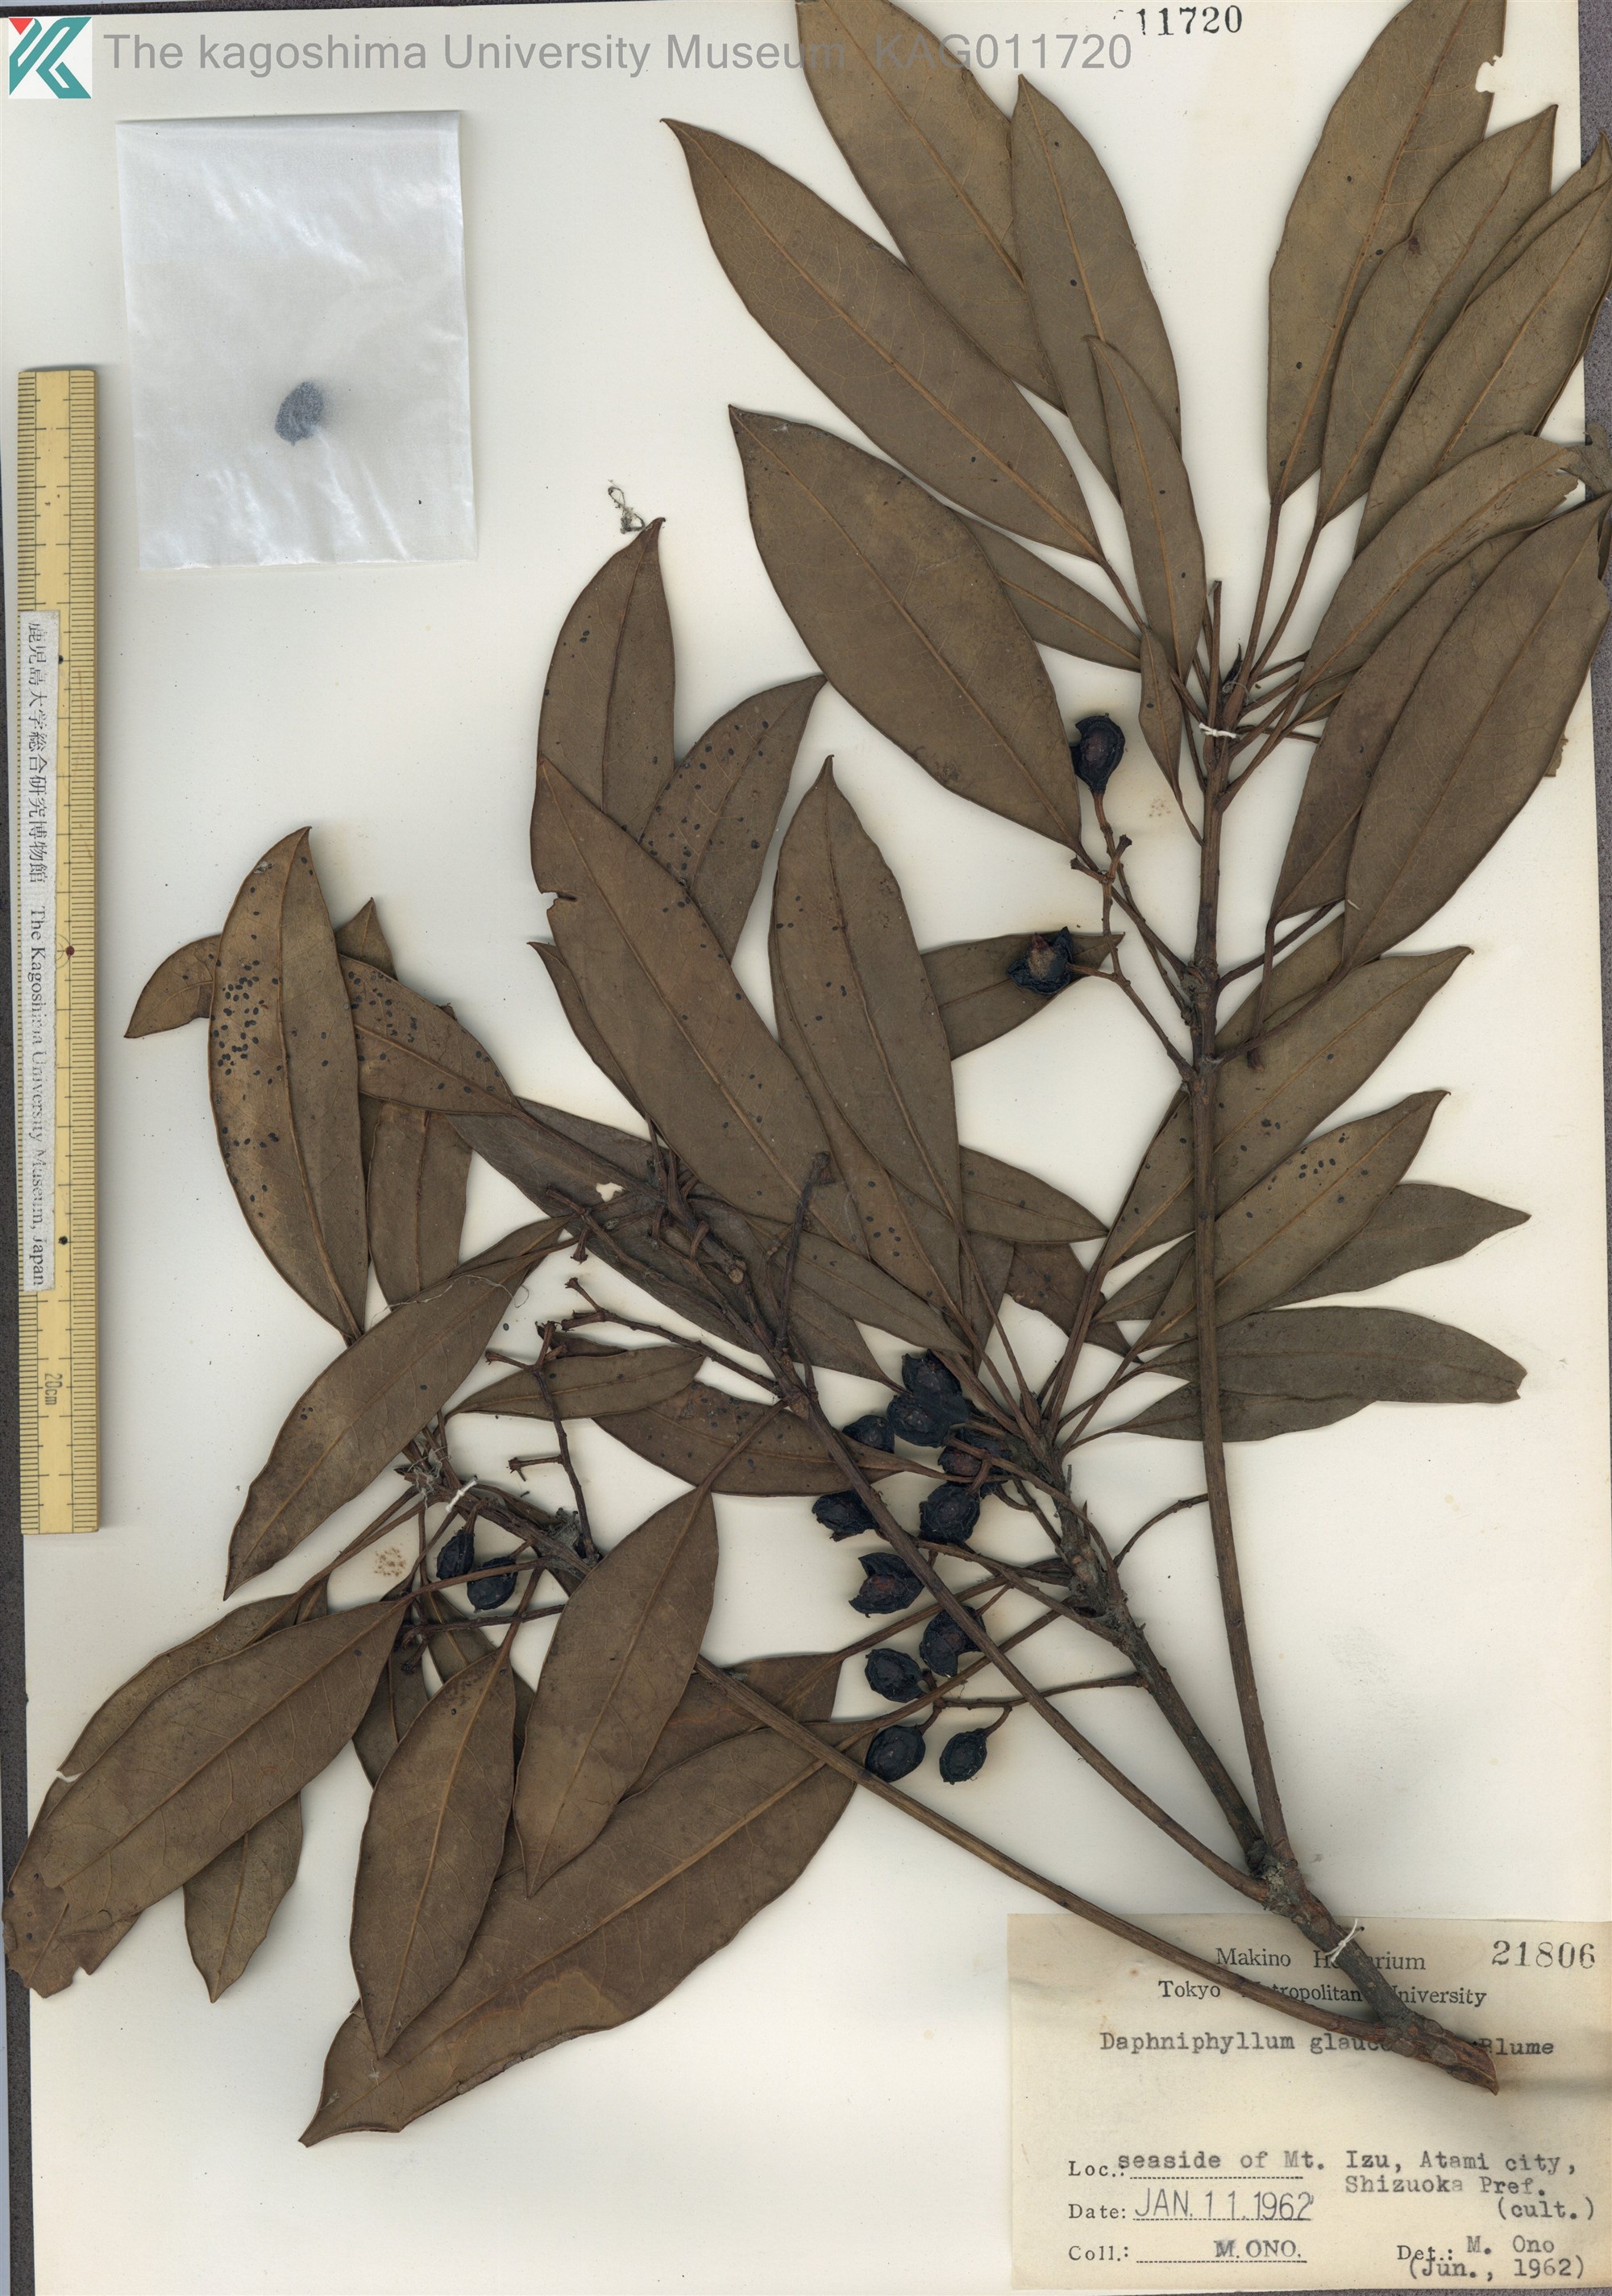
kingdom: Plantae
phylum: Tracheophyta
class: Magnoliopsida
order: Saxifragales
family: Daphniphyllaceae
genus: Daphniphyllum
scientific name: Daphniphyllum teijsmannii
